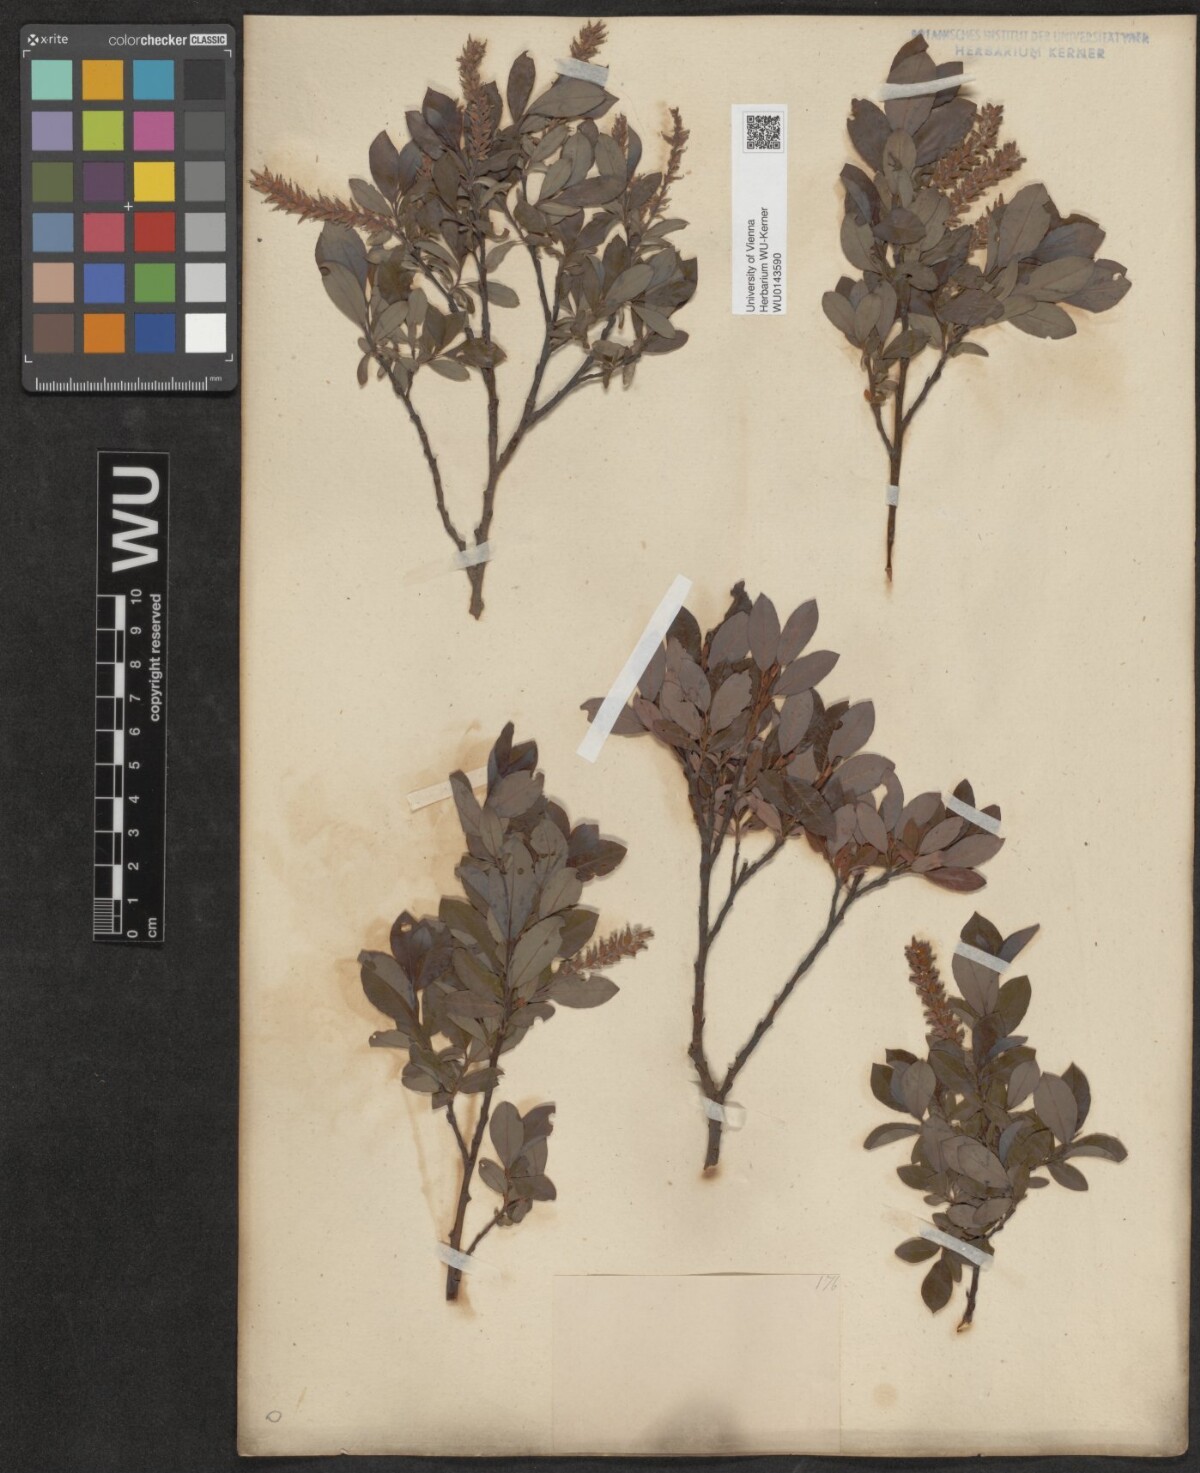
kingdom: Plantae
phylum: Tracheophyta
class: Magnoliopsida
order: Malpighiales
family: Salicaceae
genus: Salix
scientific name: Salix waldsteiniana
